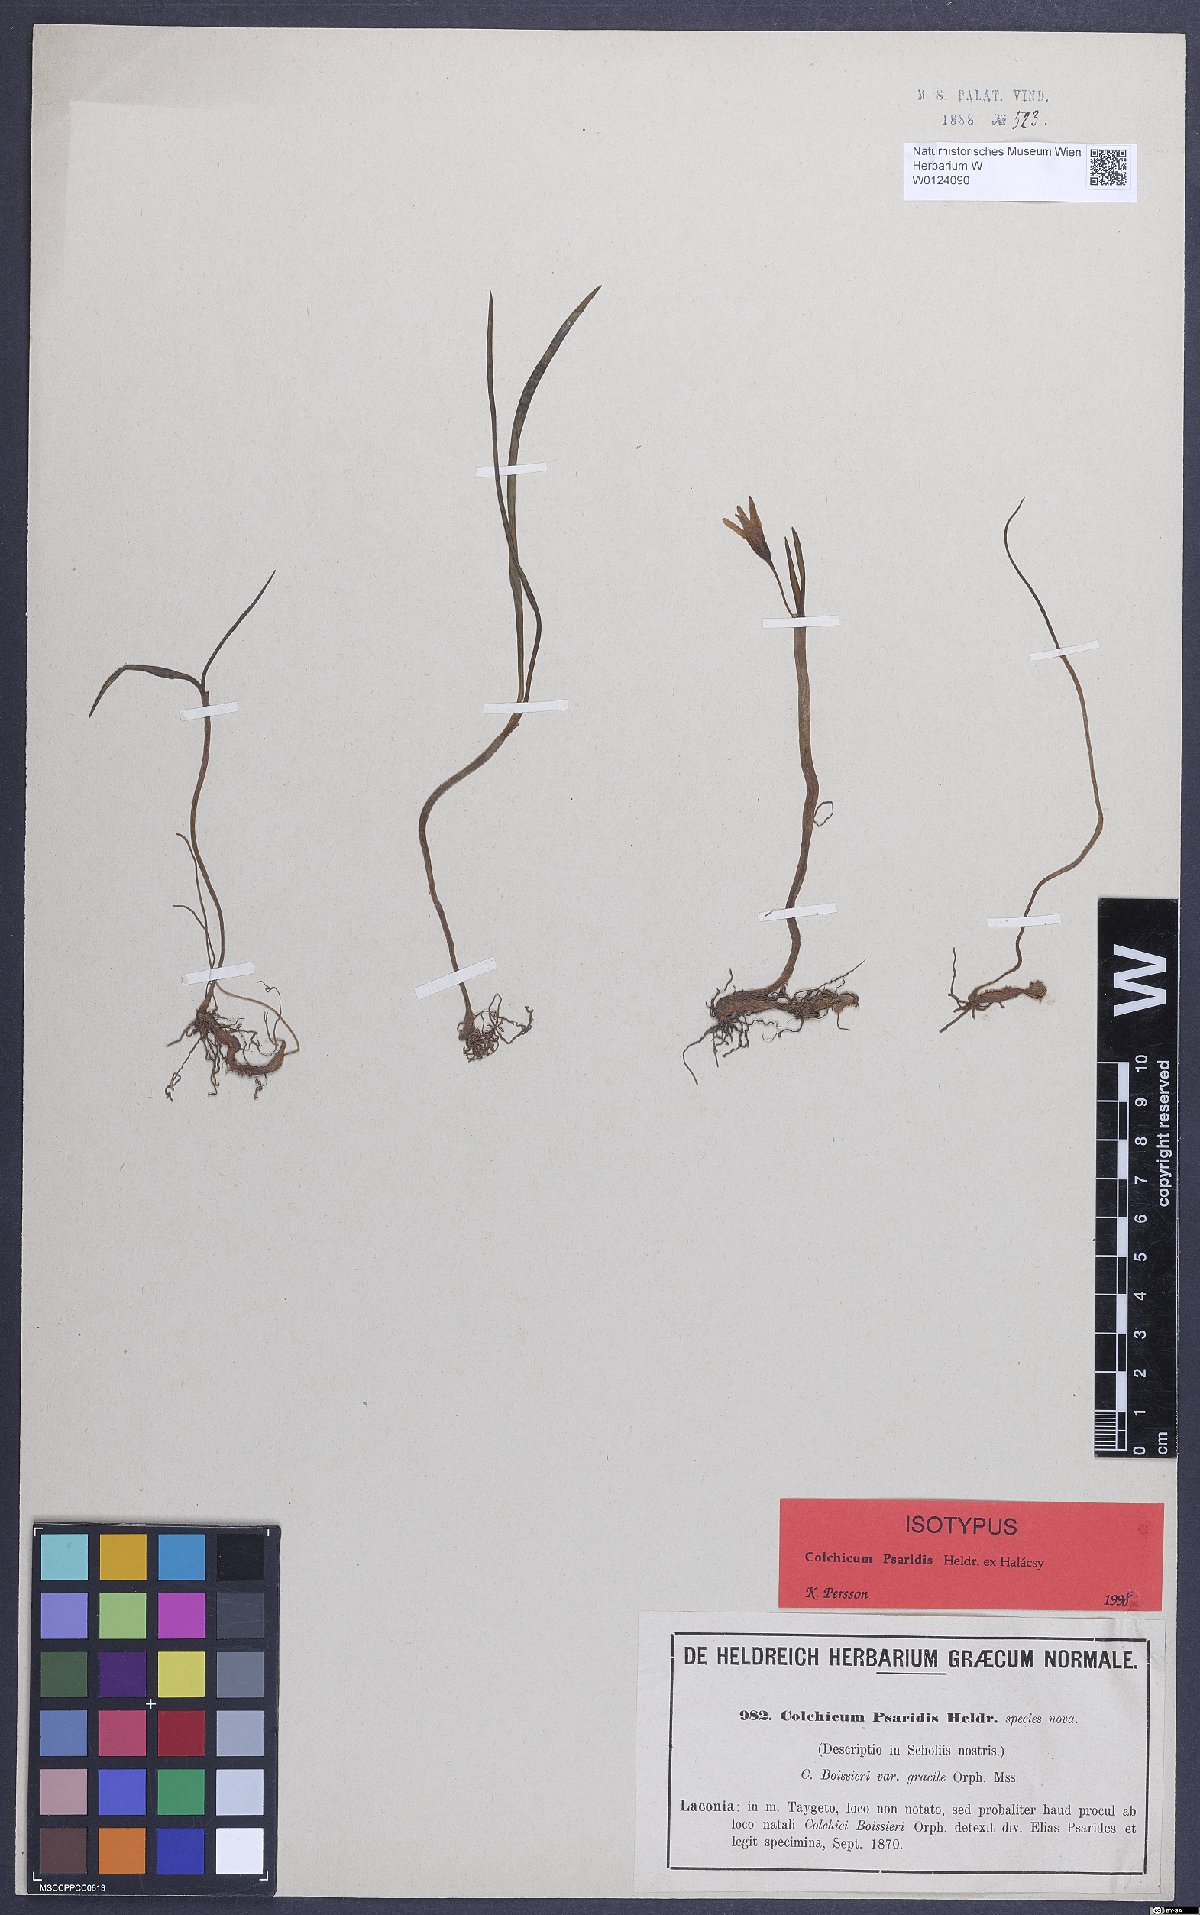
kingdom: Plantae
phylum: Tracheophyta
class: Liliopsida
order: Liliales
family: Colchicaceae
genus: Colchicum
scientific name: Colchicum zahnii
